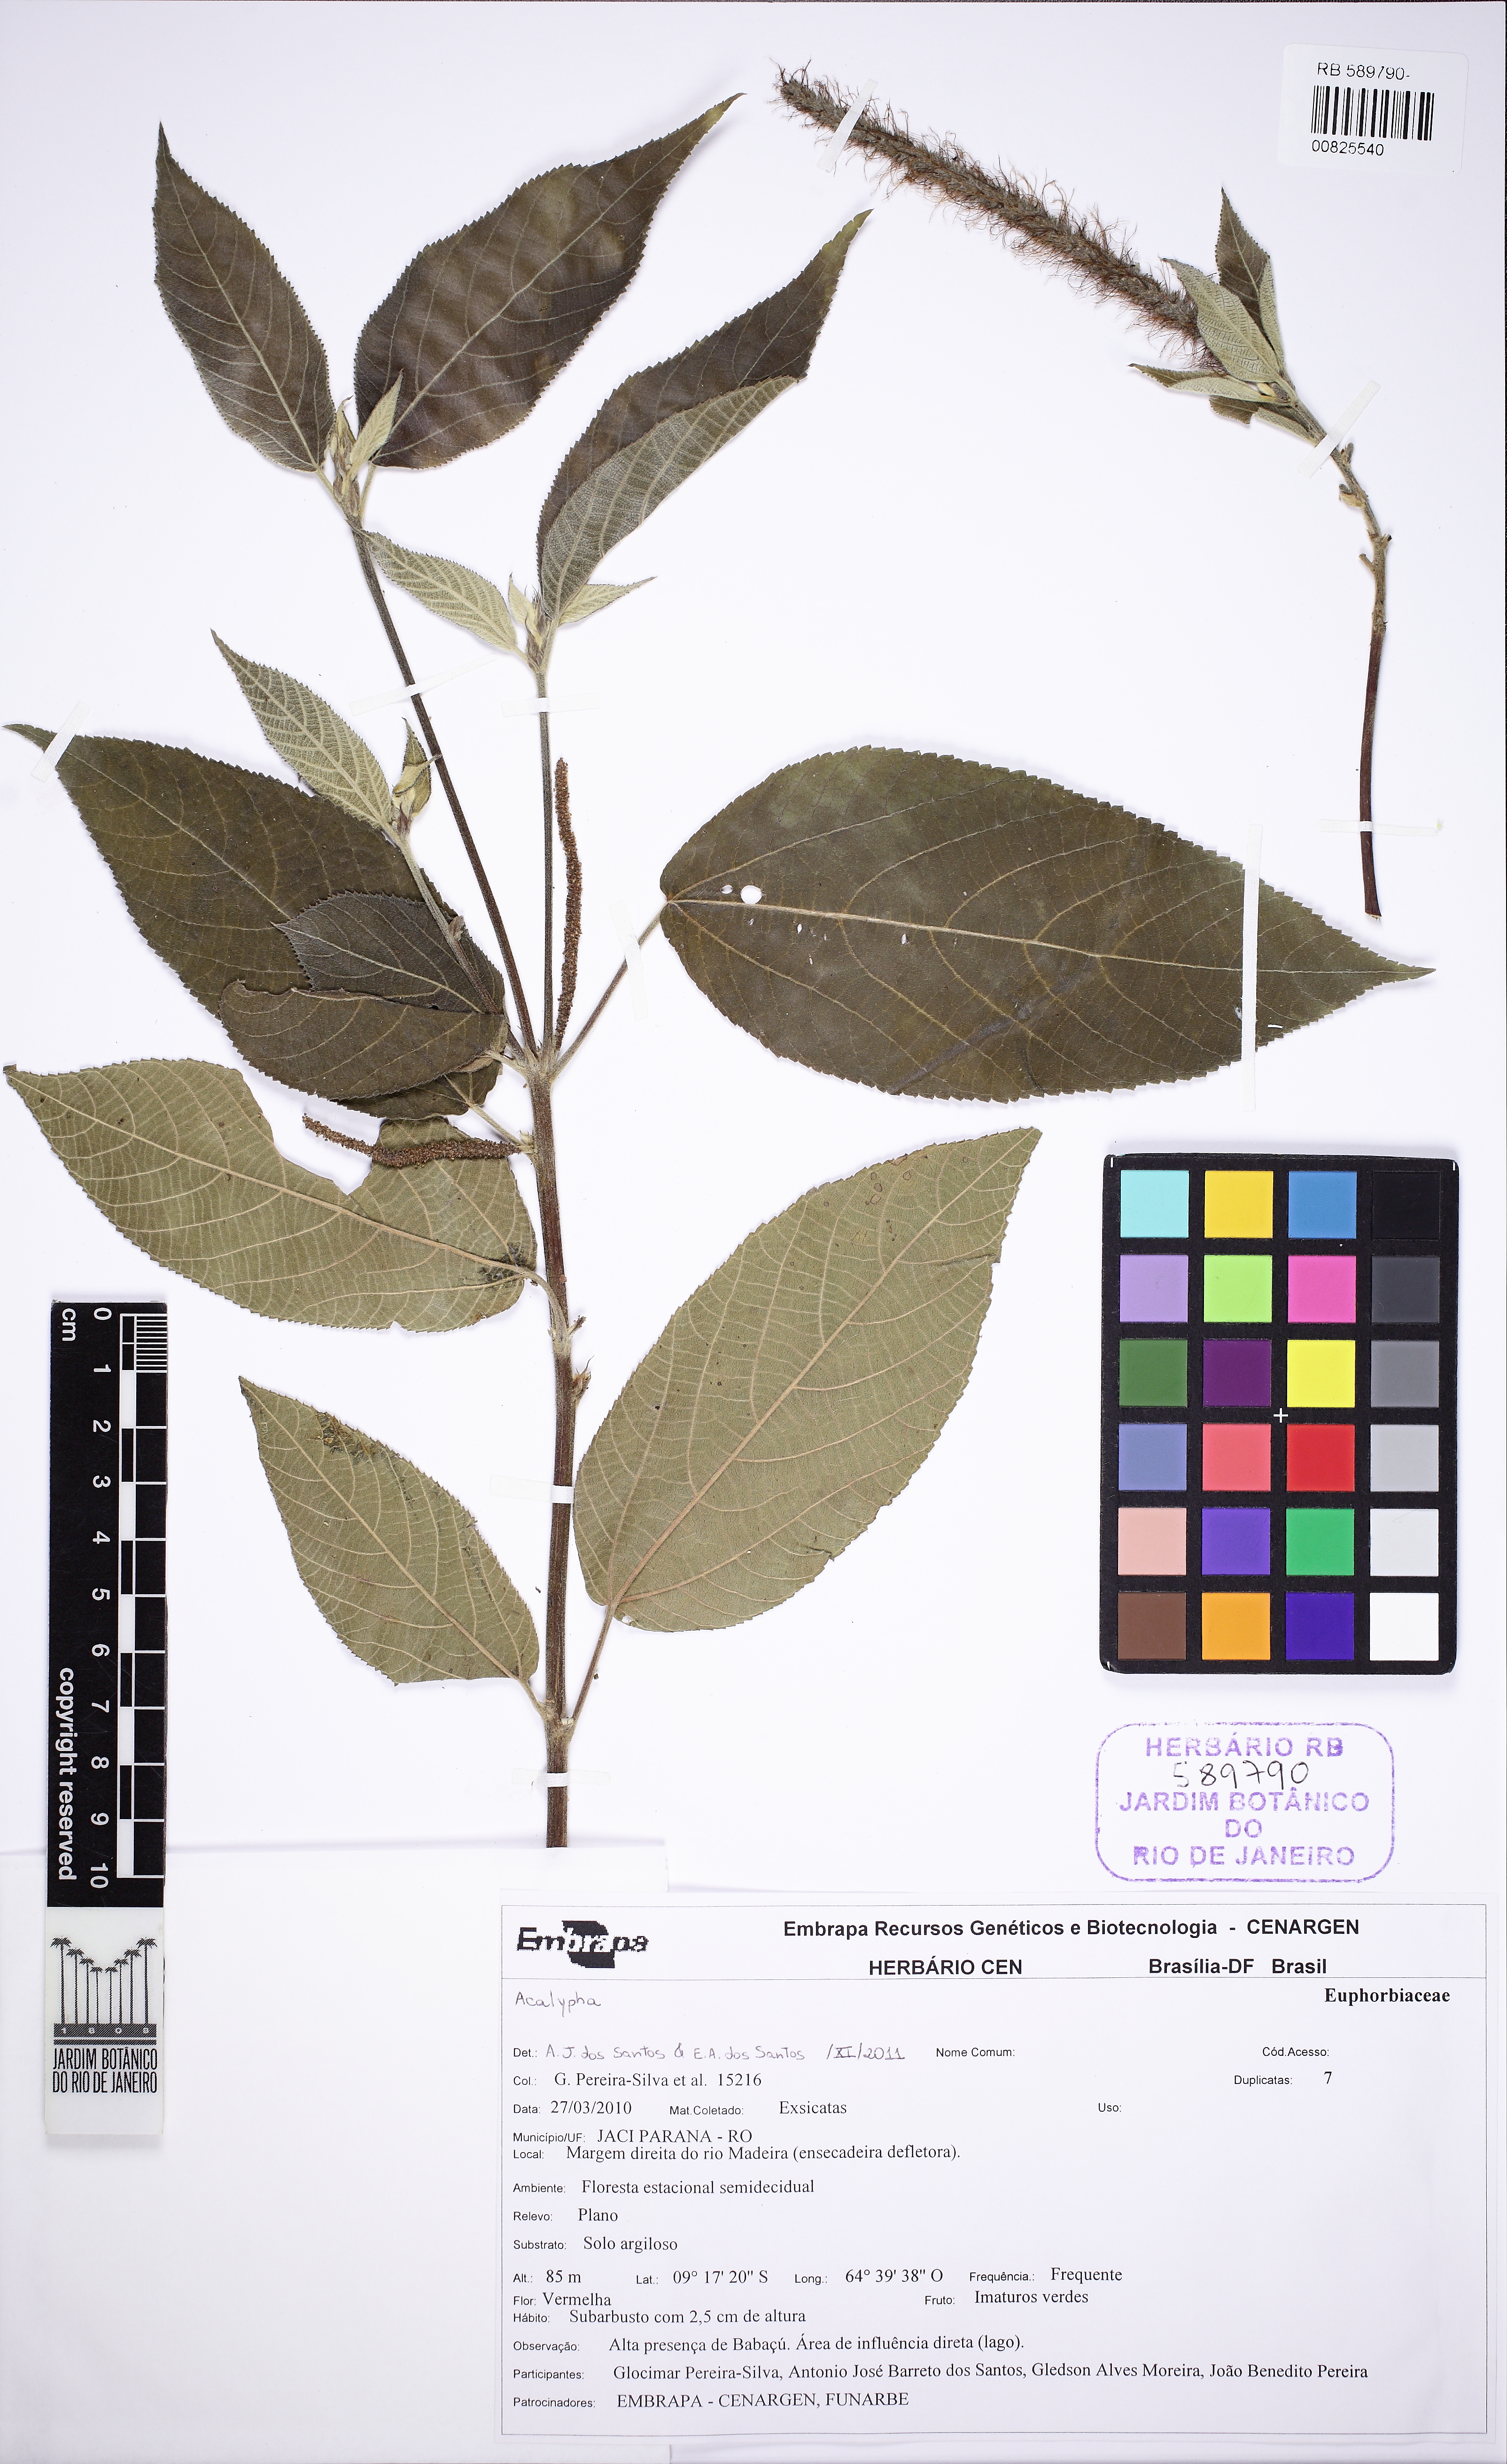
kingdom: Plantae
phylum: Tracheophyta
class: Magnoliopsida
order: Malpighiales
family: Euphorbiaceae
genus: Acalypha
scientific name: Acalypha stricta
